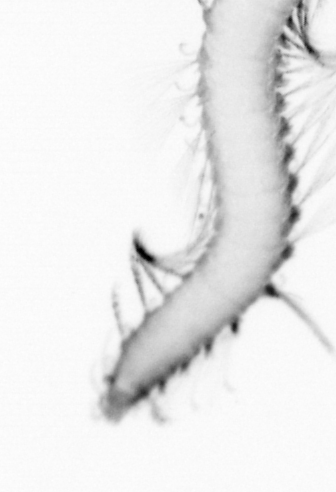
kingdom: Animalia
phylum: Annelida
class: Polychaeta
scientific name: Polychaeta
